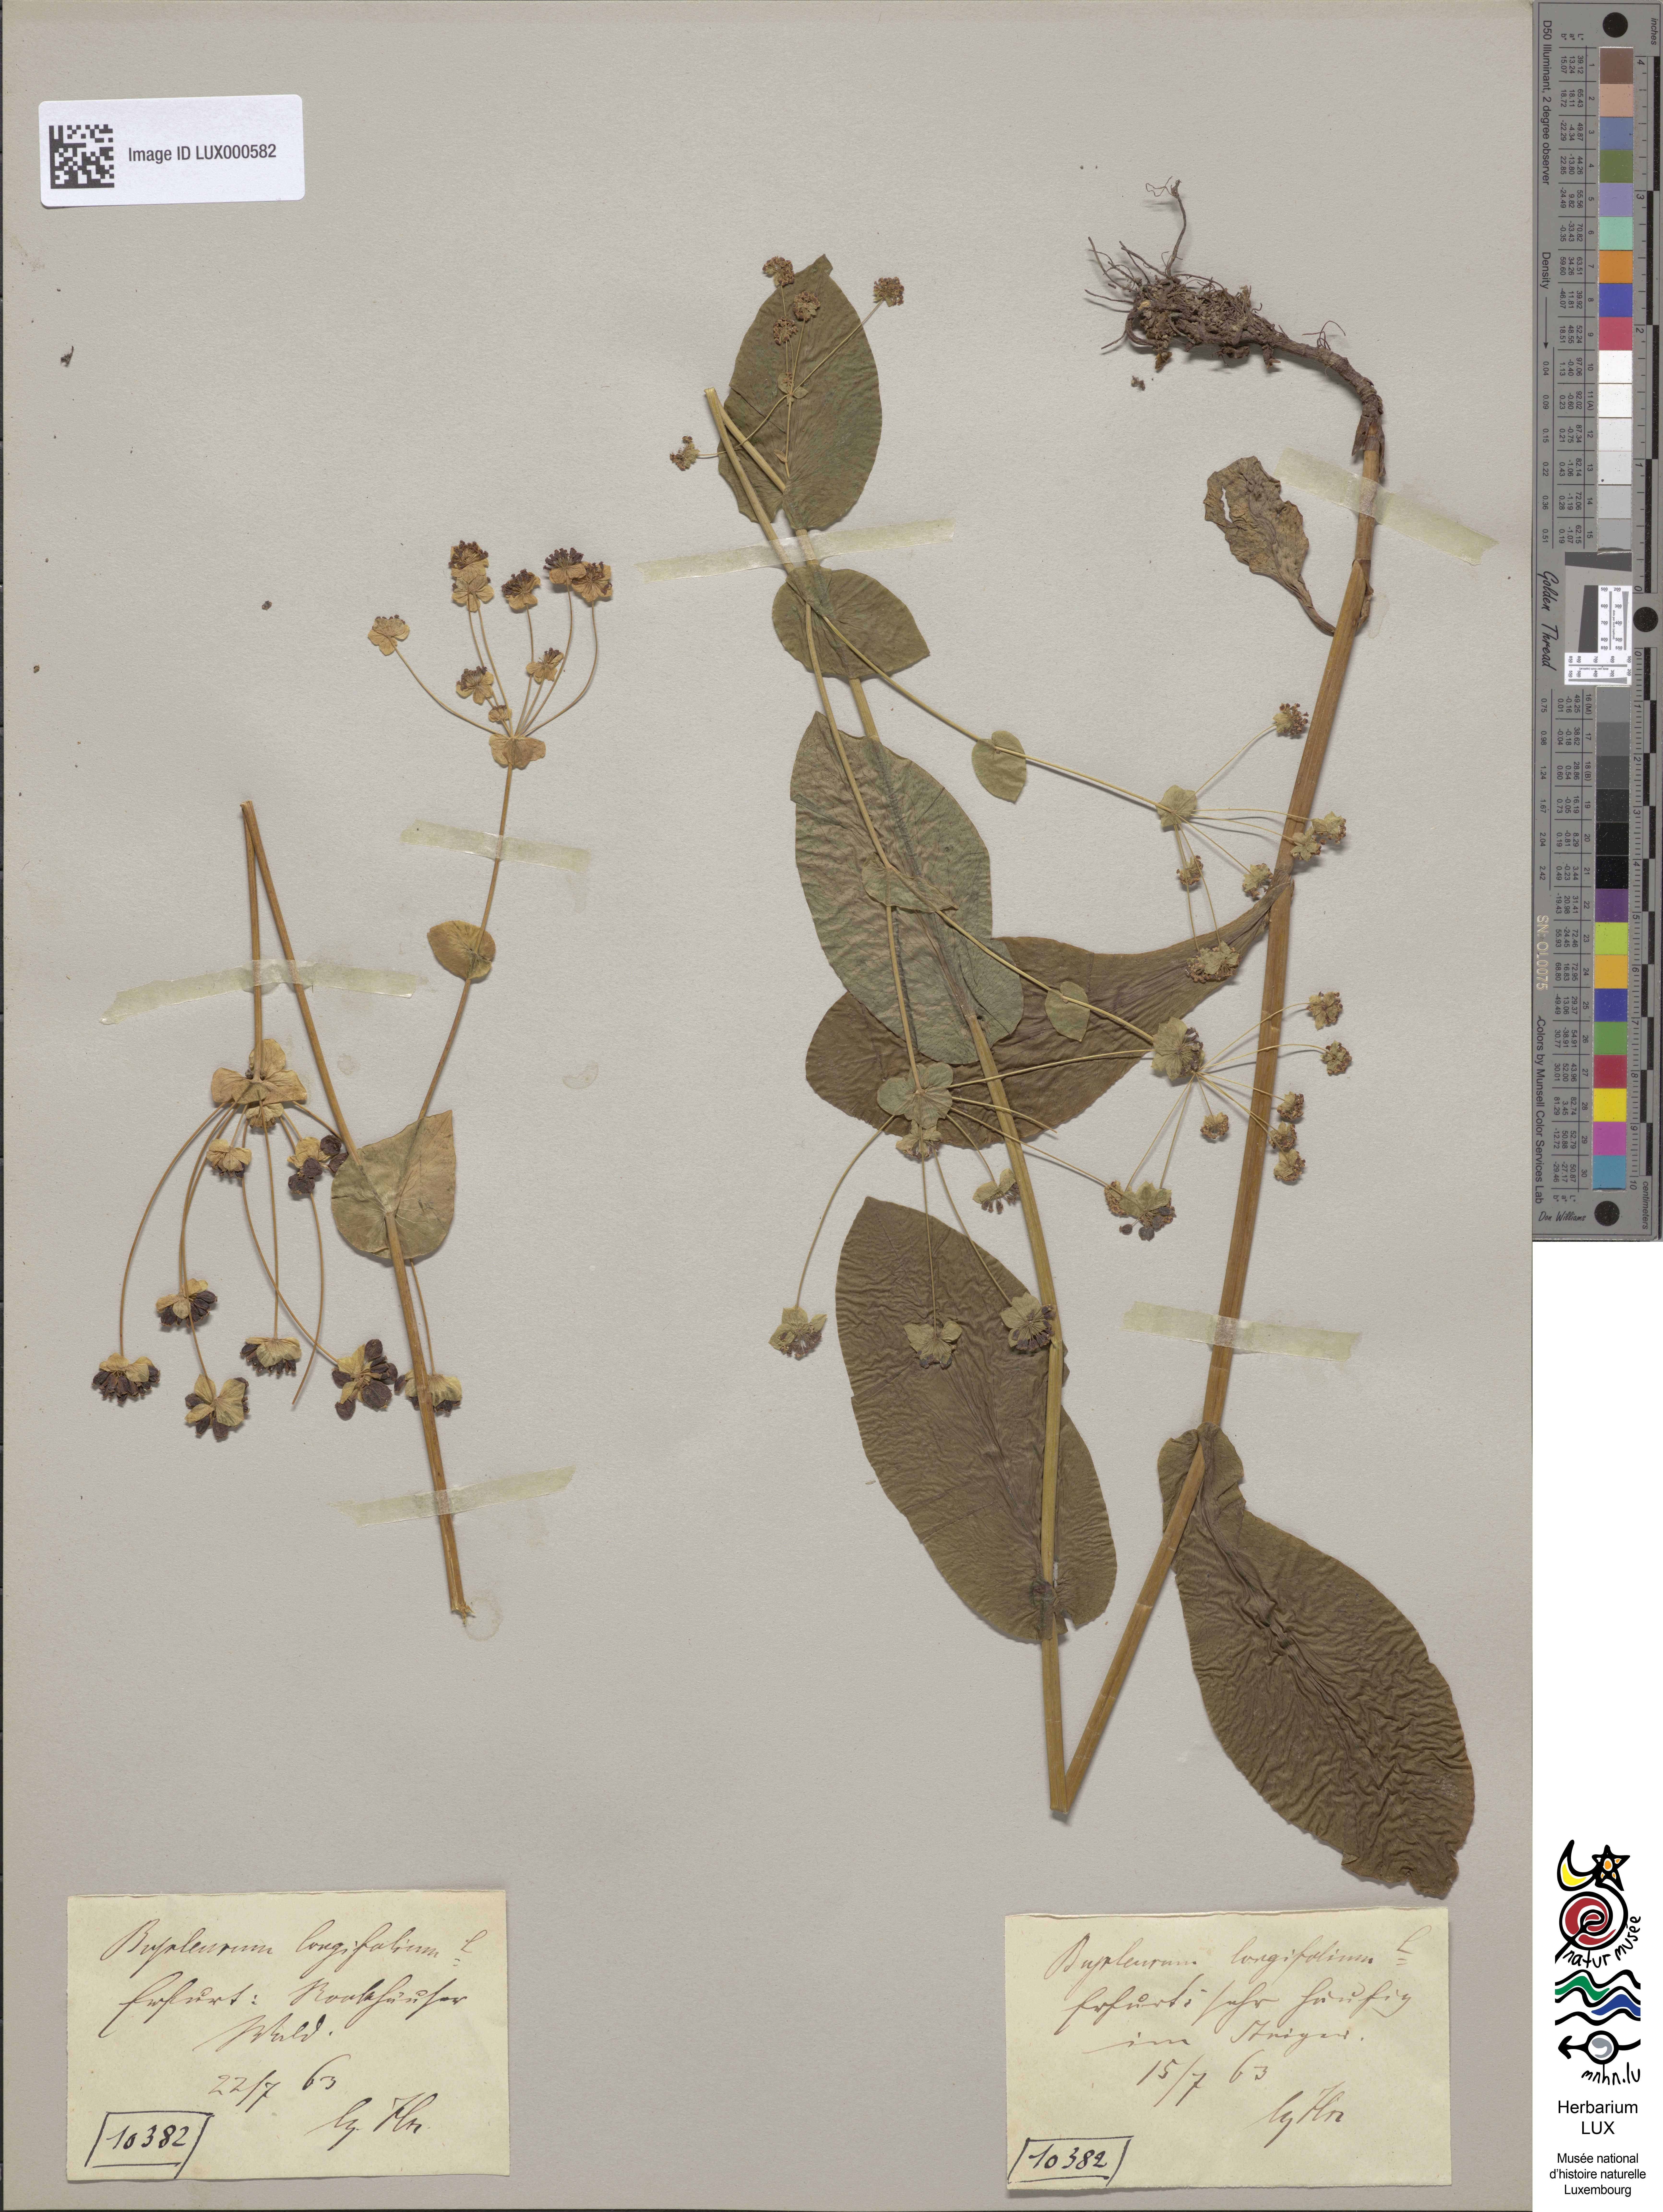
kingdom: Plantae
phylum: Tracheophyta
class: Magnoliopsida
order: Apiales
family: Apiaceae
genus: Bupleurum
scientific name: Bupleurum longifolium
